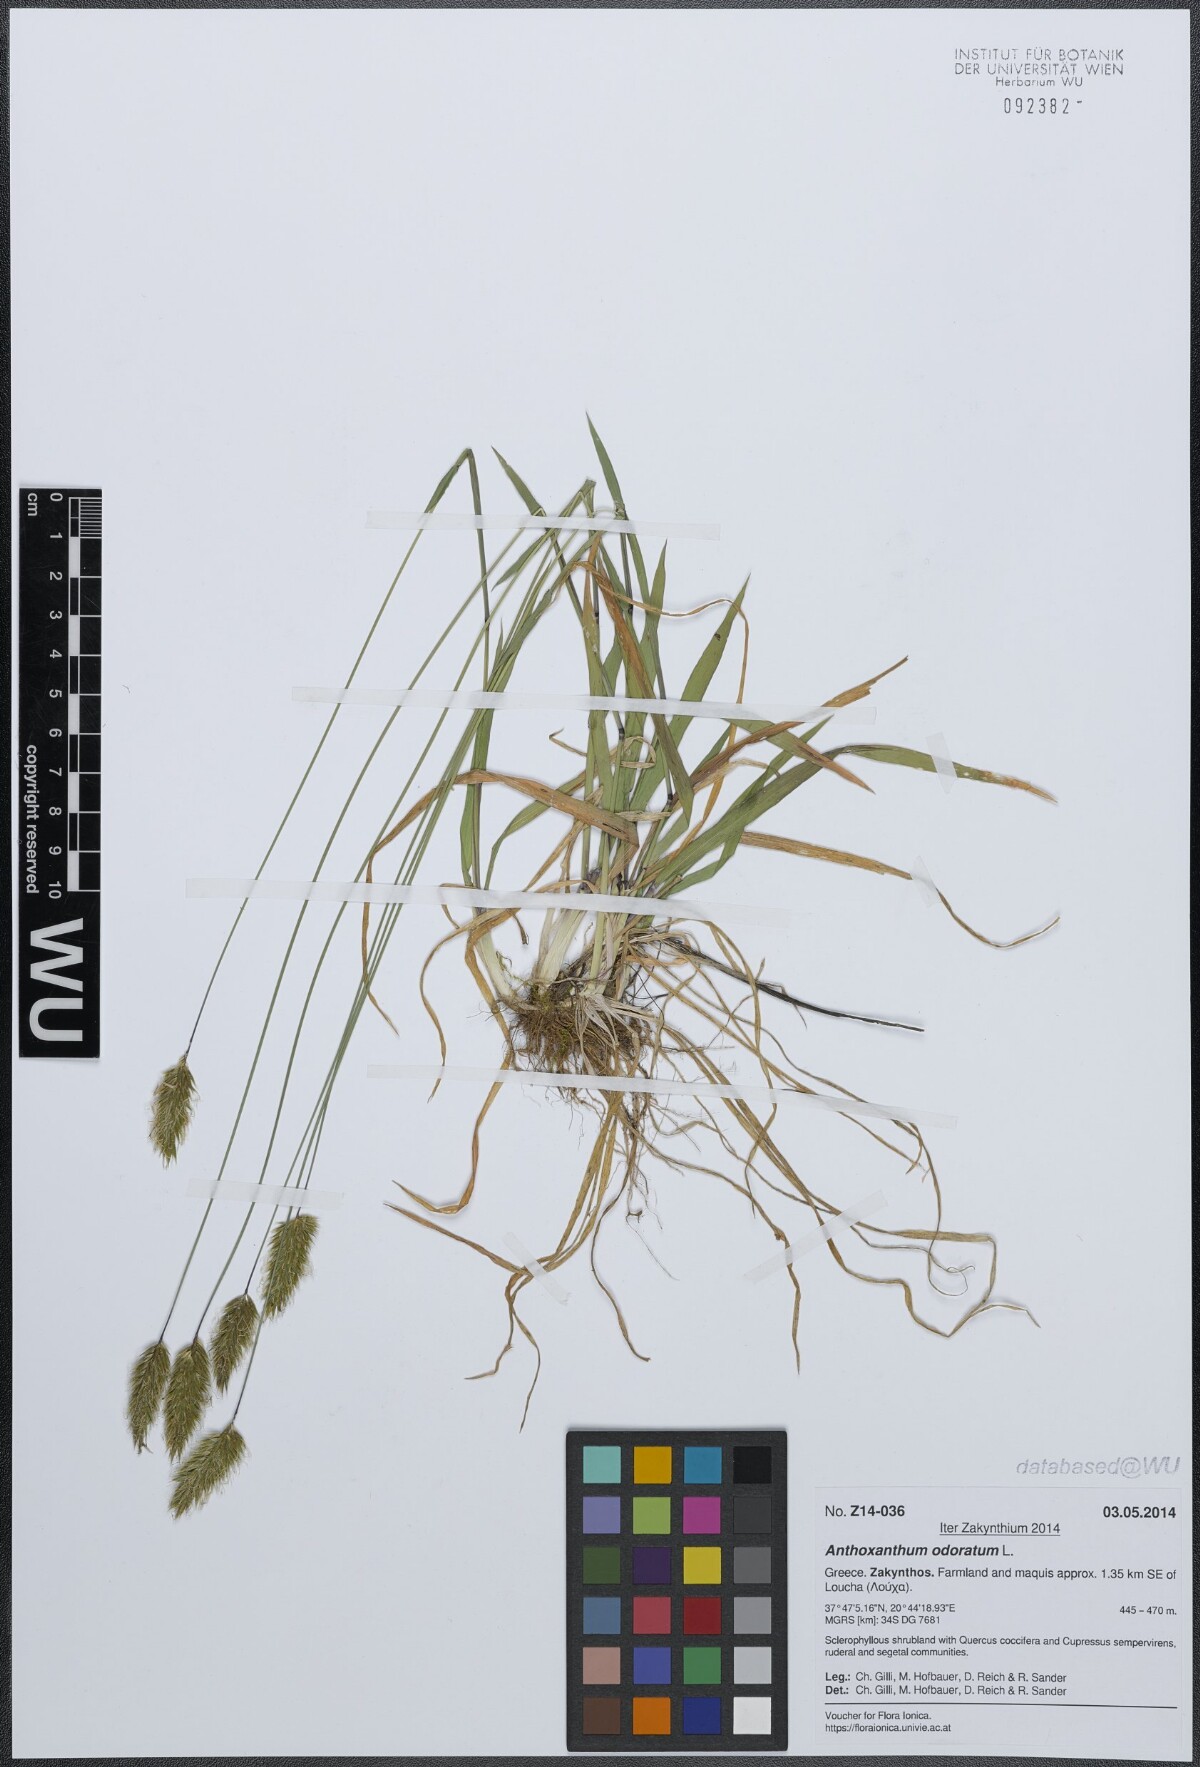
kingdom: Plantae
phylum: Tracheophyta
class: Liliopsida
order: Poales
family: Poaceae
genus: Anthoxanthum
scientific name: Anthoxanthum odoratum
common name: Sweet vernalgrass
